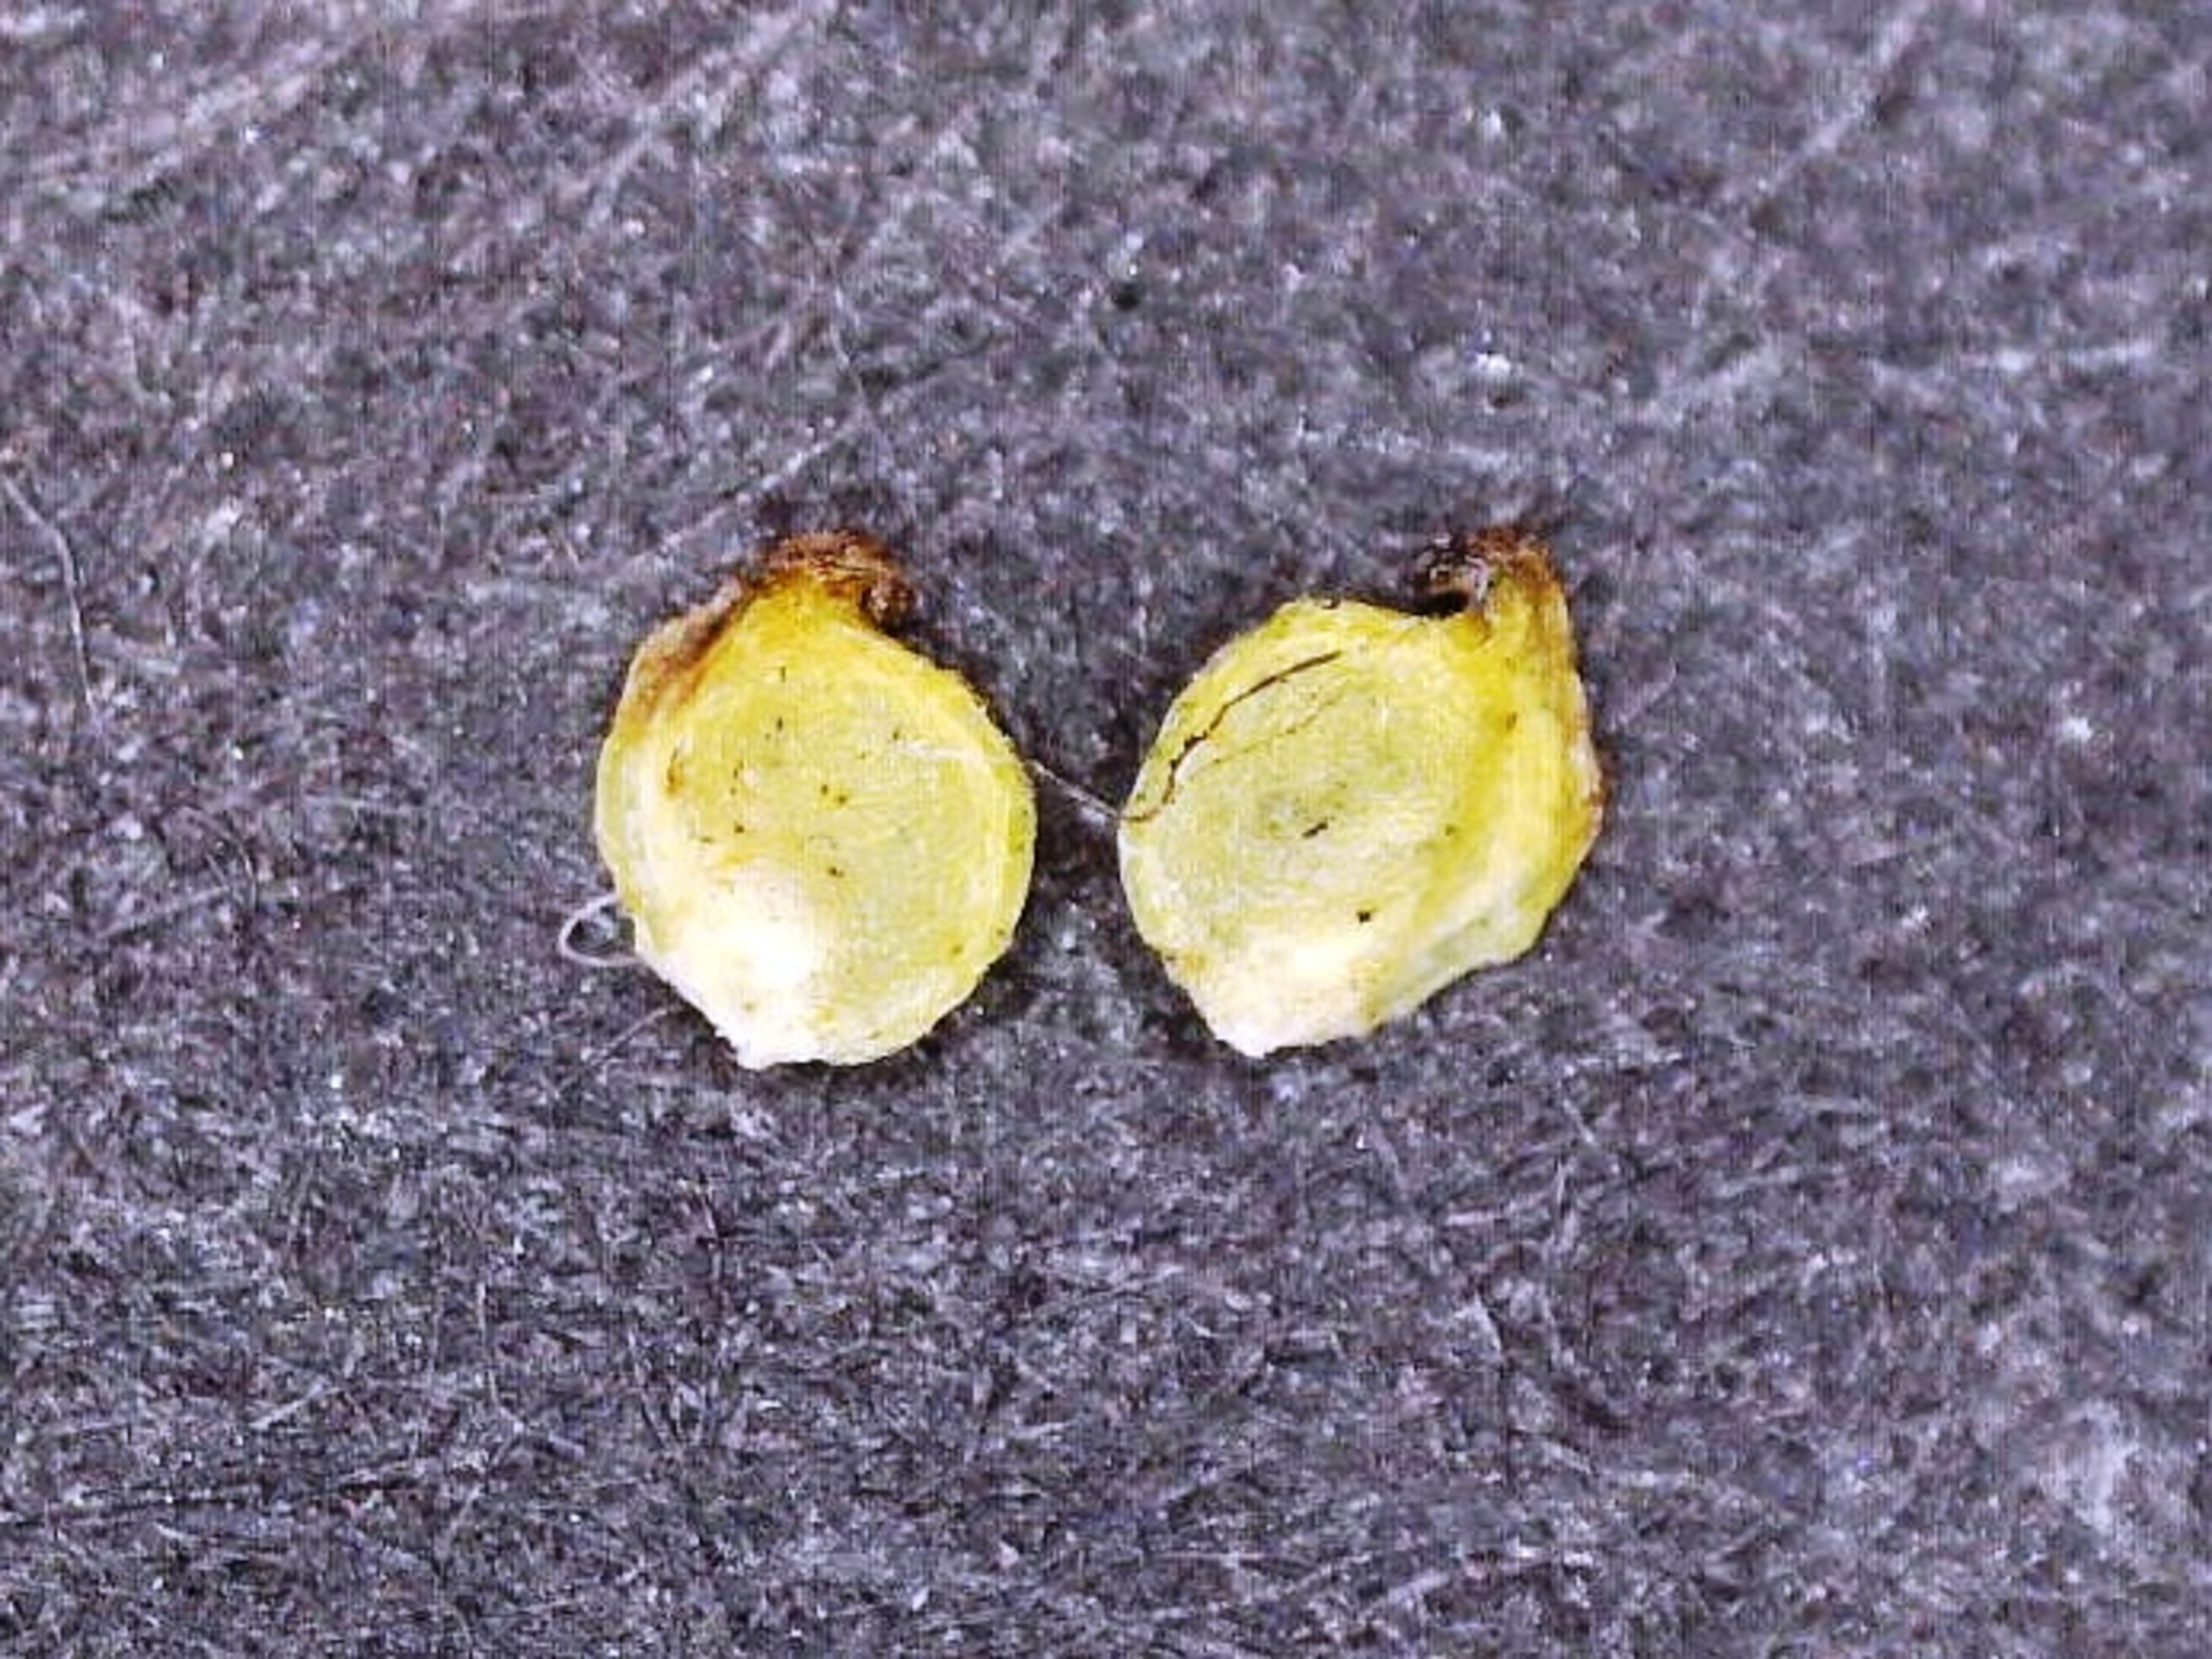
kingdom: Plantae
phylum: Tracheophyta
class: Magnoliopsida
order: Ranunculales
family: Ranunculaceae
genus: Ranunculus
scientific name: Ranunculus flammula
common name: Kær-ranunkel
